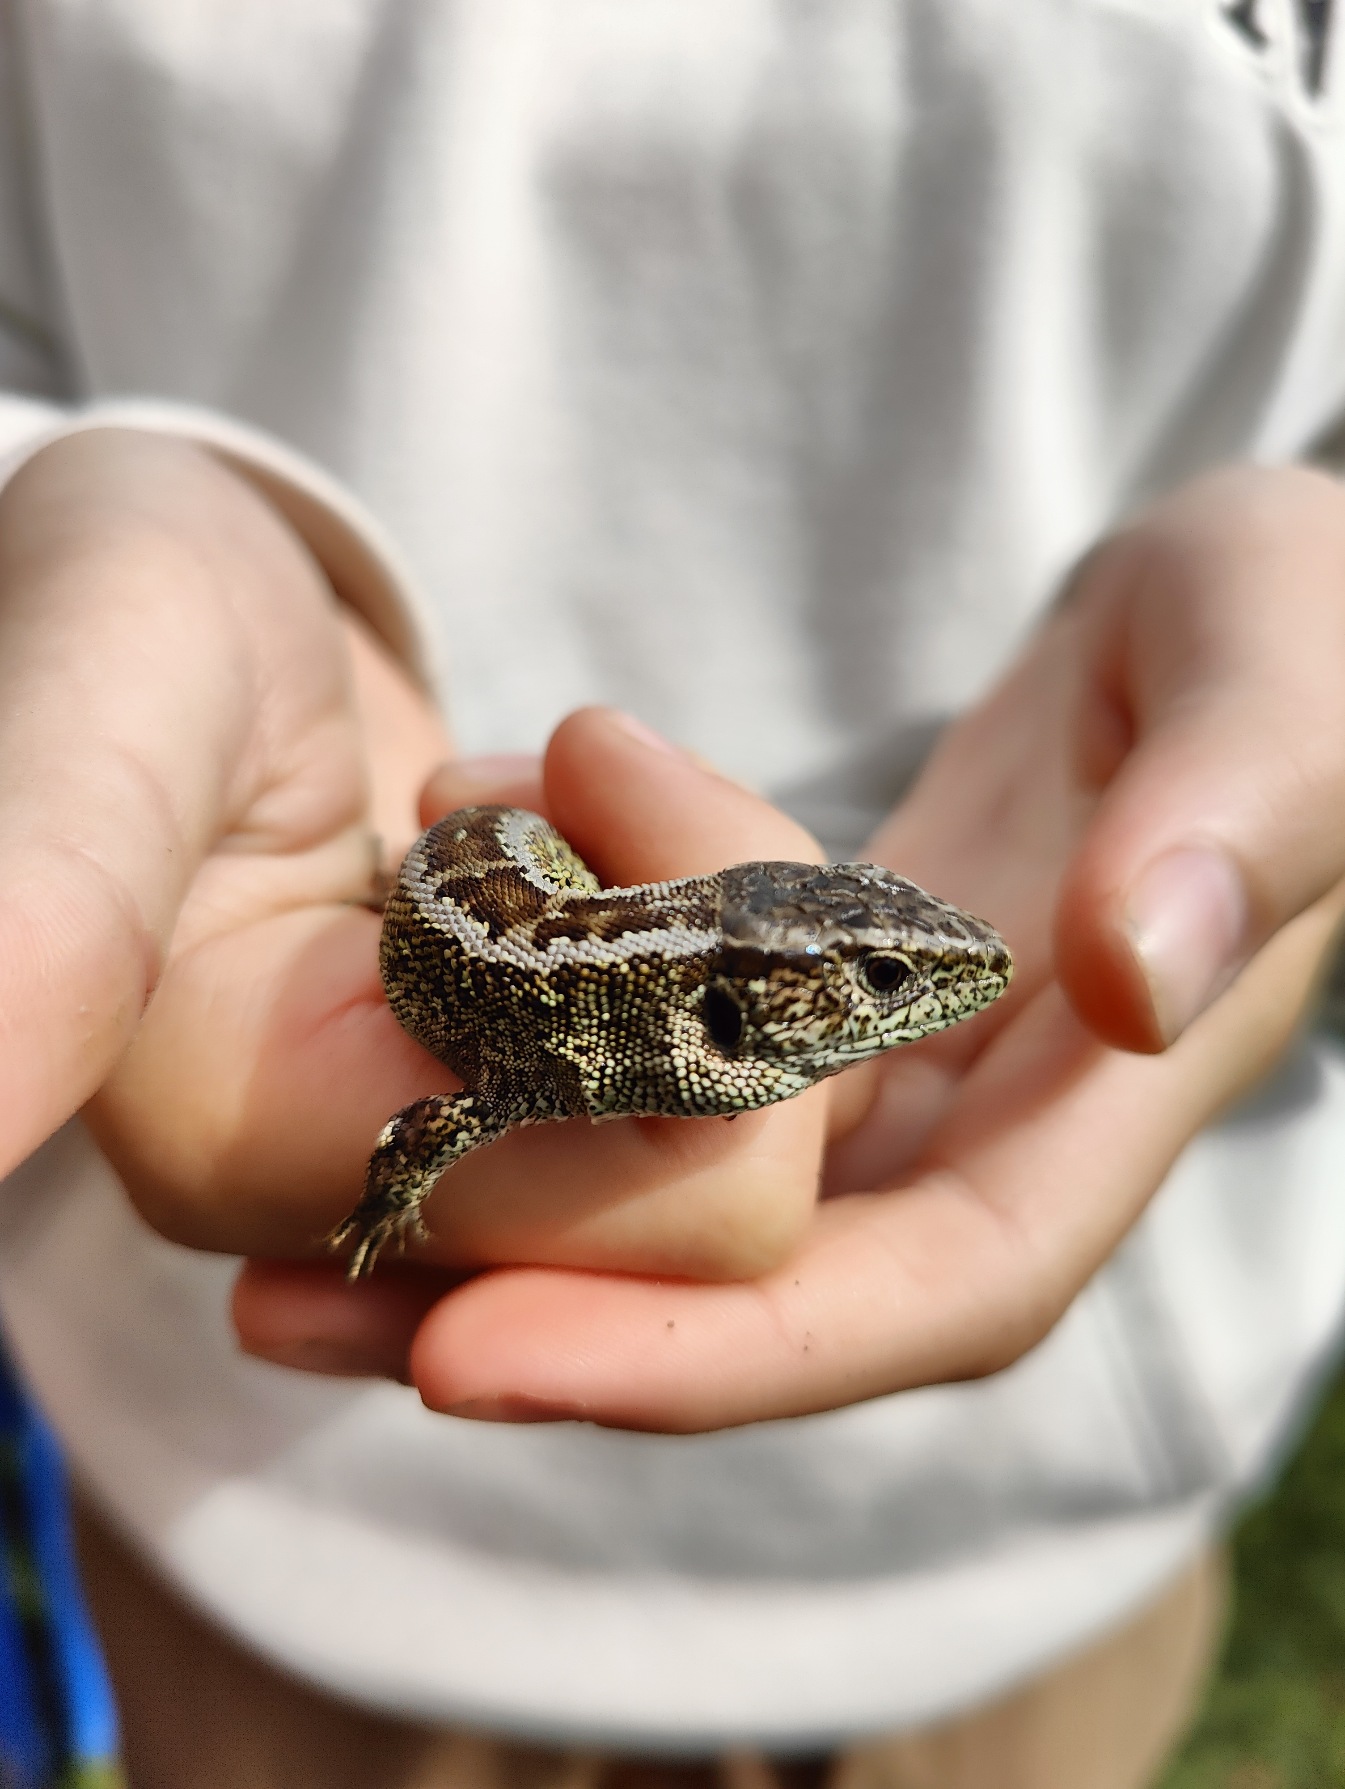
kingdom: Animalia
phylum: Chordata
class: Squamata
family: Lacertidae
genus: Lacerta
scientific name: Lacerta agilis
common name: Markfirben
